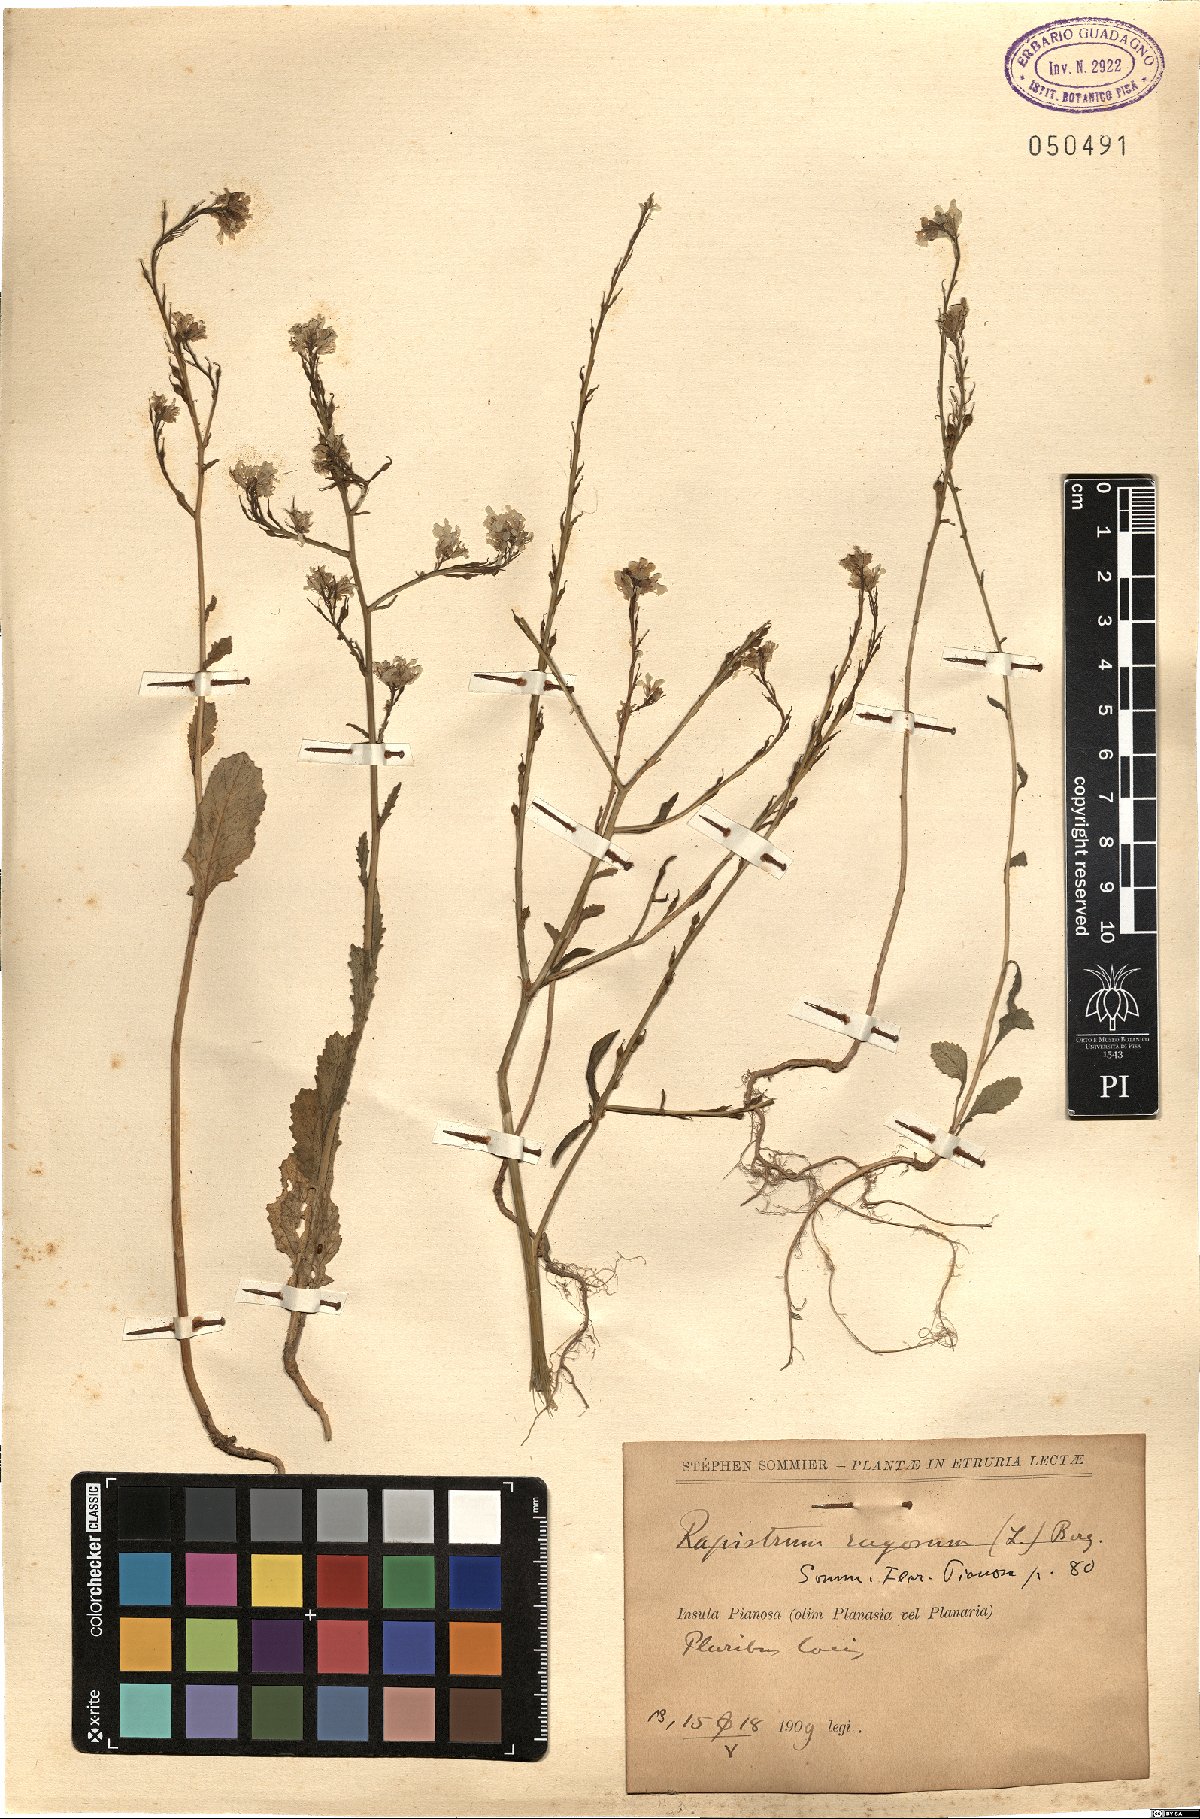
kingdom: Plantae
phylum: Tracheophyta
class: Magnoliopsida
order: Brassicales
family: Brassicaceae
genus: Rapistrum
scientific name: Rapistrum rugosum
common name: Annual bastardcabbage
